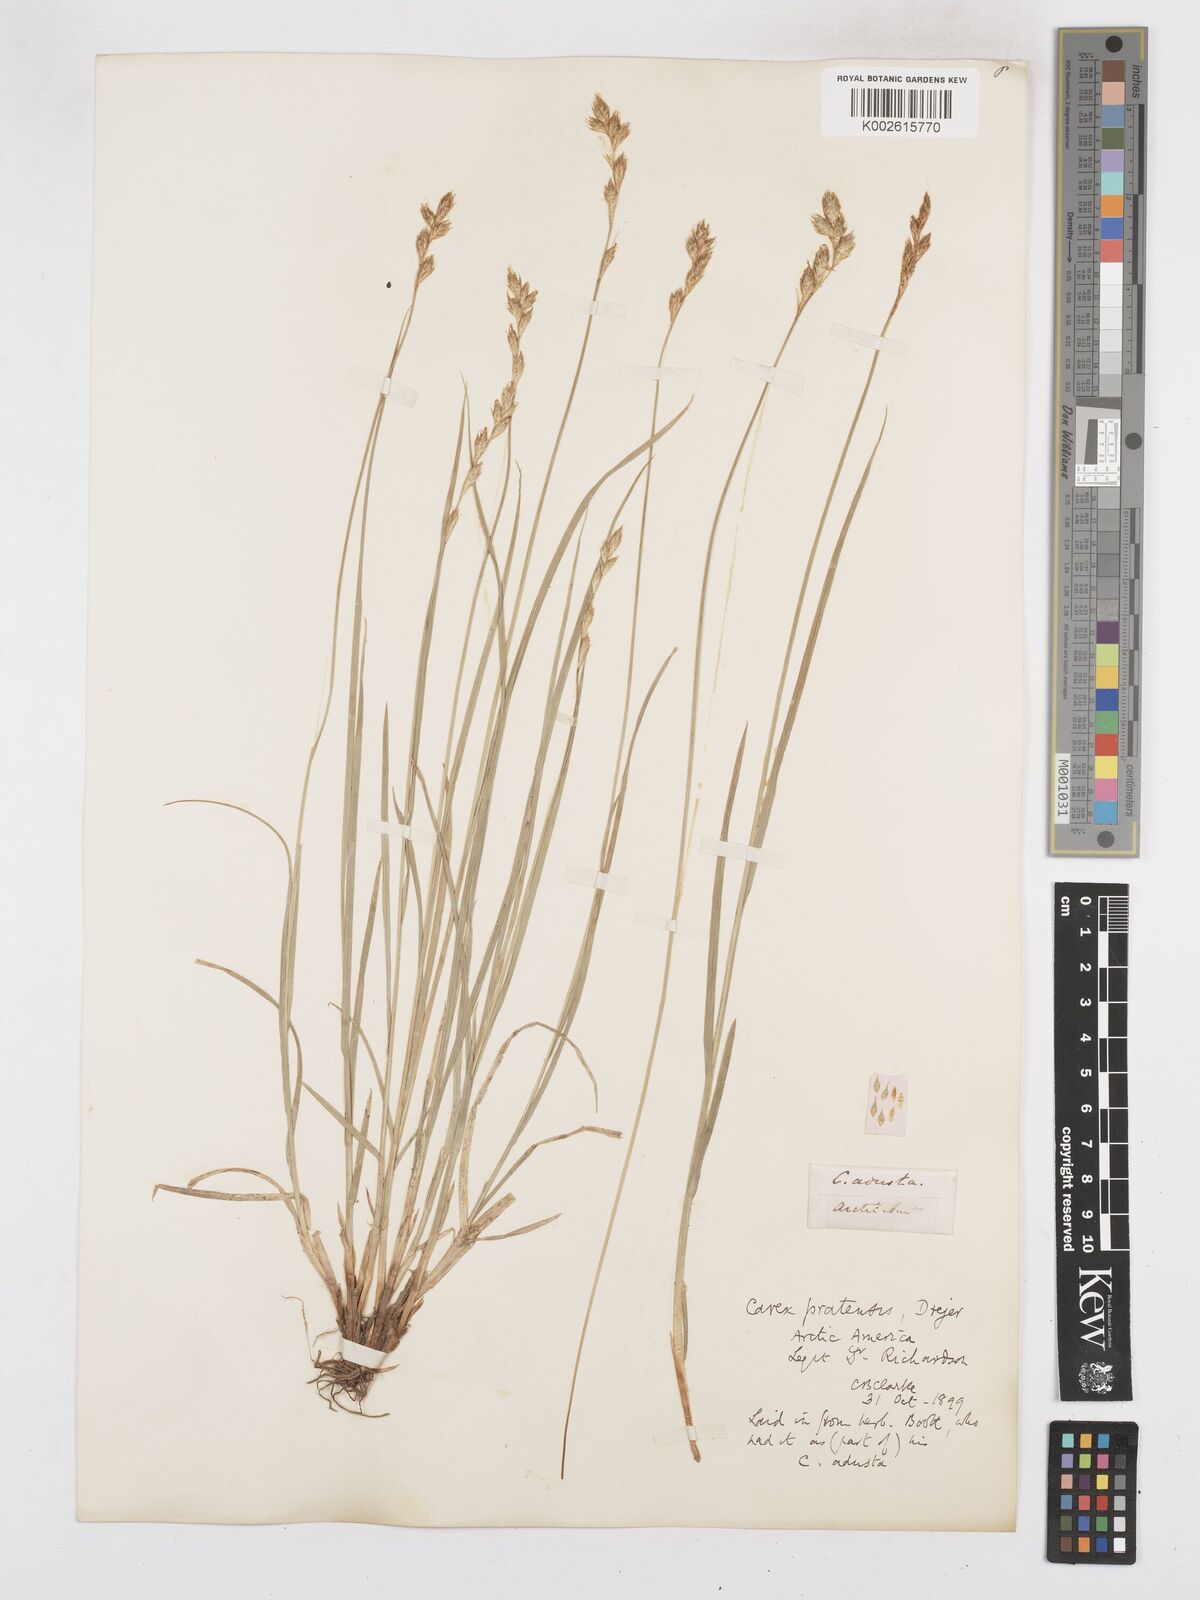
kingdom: Plantae
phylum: Tracheophyta
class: Liliopsida
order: Poales
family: Cyperaceae
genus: Carex
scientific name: Carex praticola
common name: Large-fruited oval sedge
